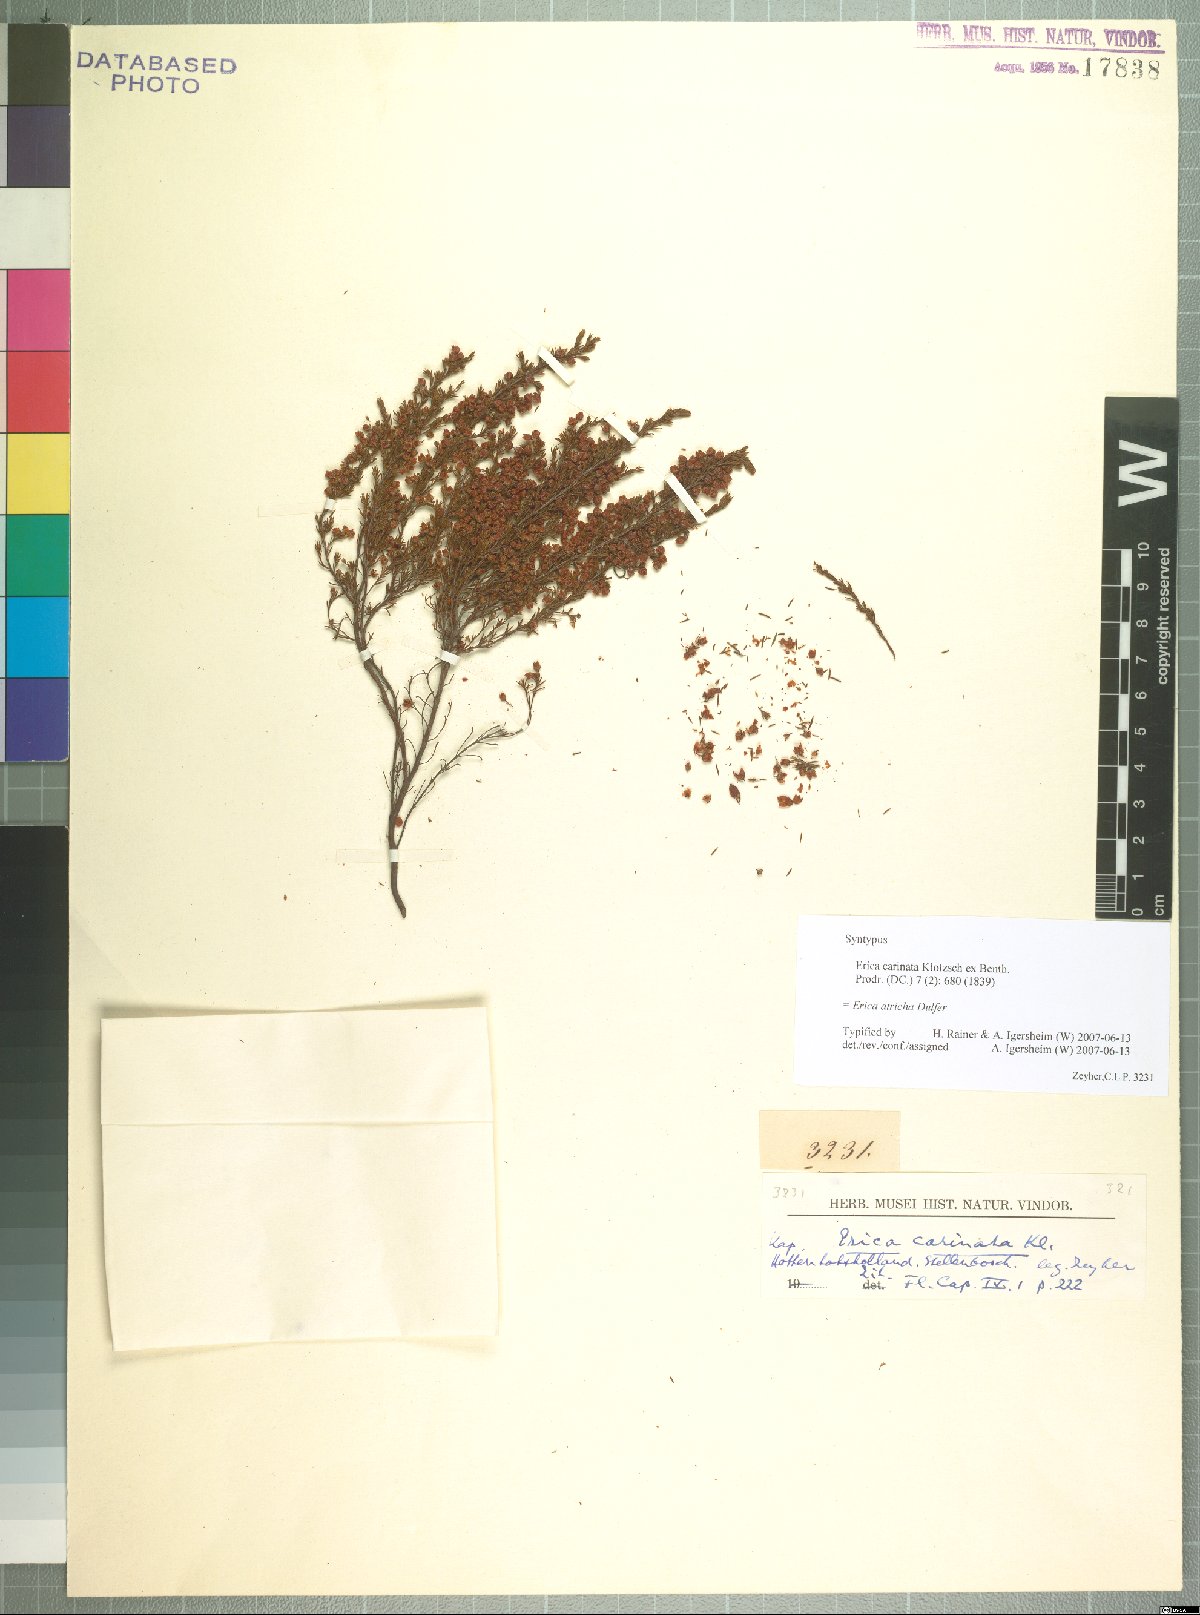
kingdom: Plantae
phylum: Tracheophyta
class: Magnoliopsida
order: Ericales
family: Ericaceae
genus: Erica
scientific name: Erica atricha
